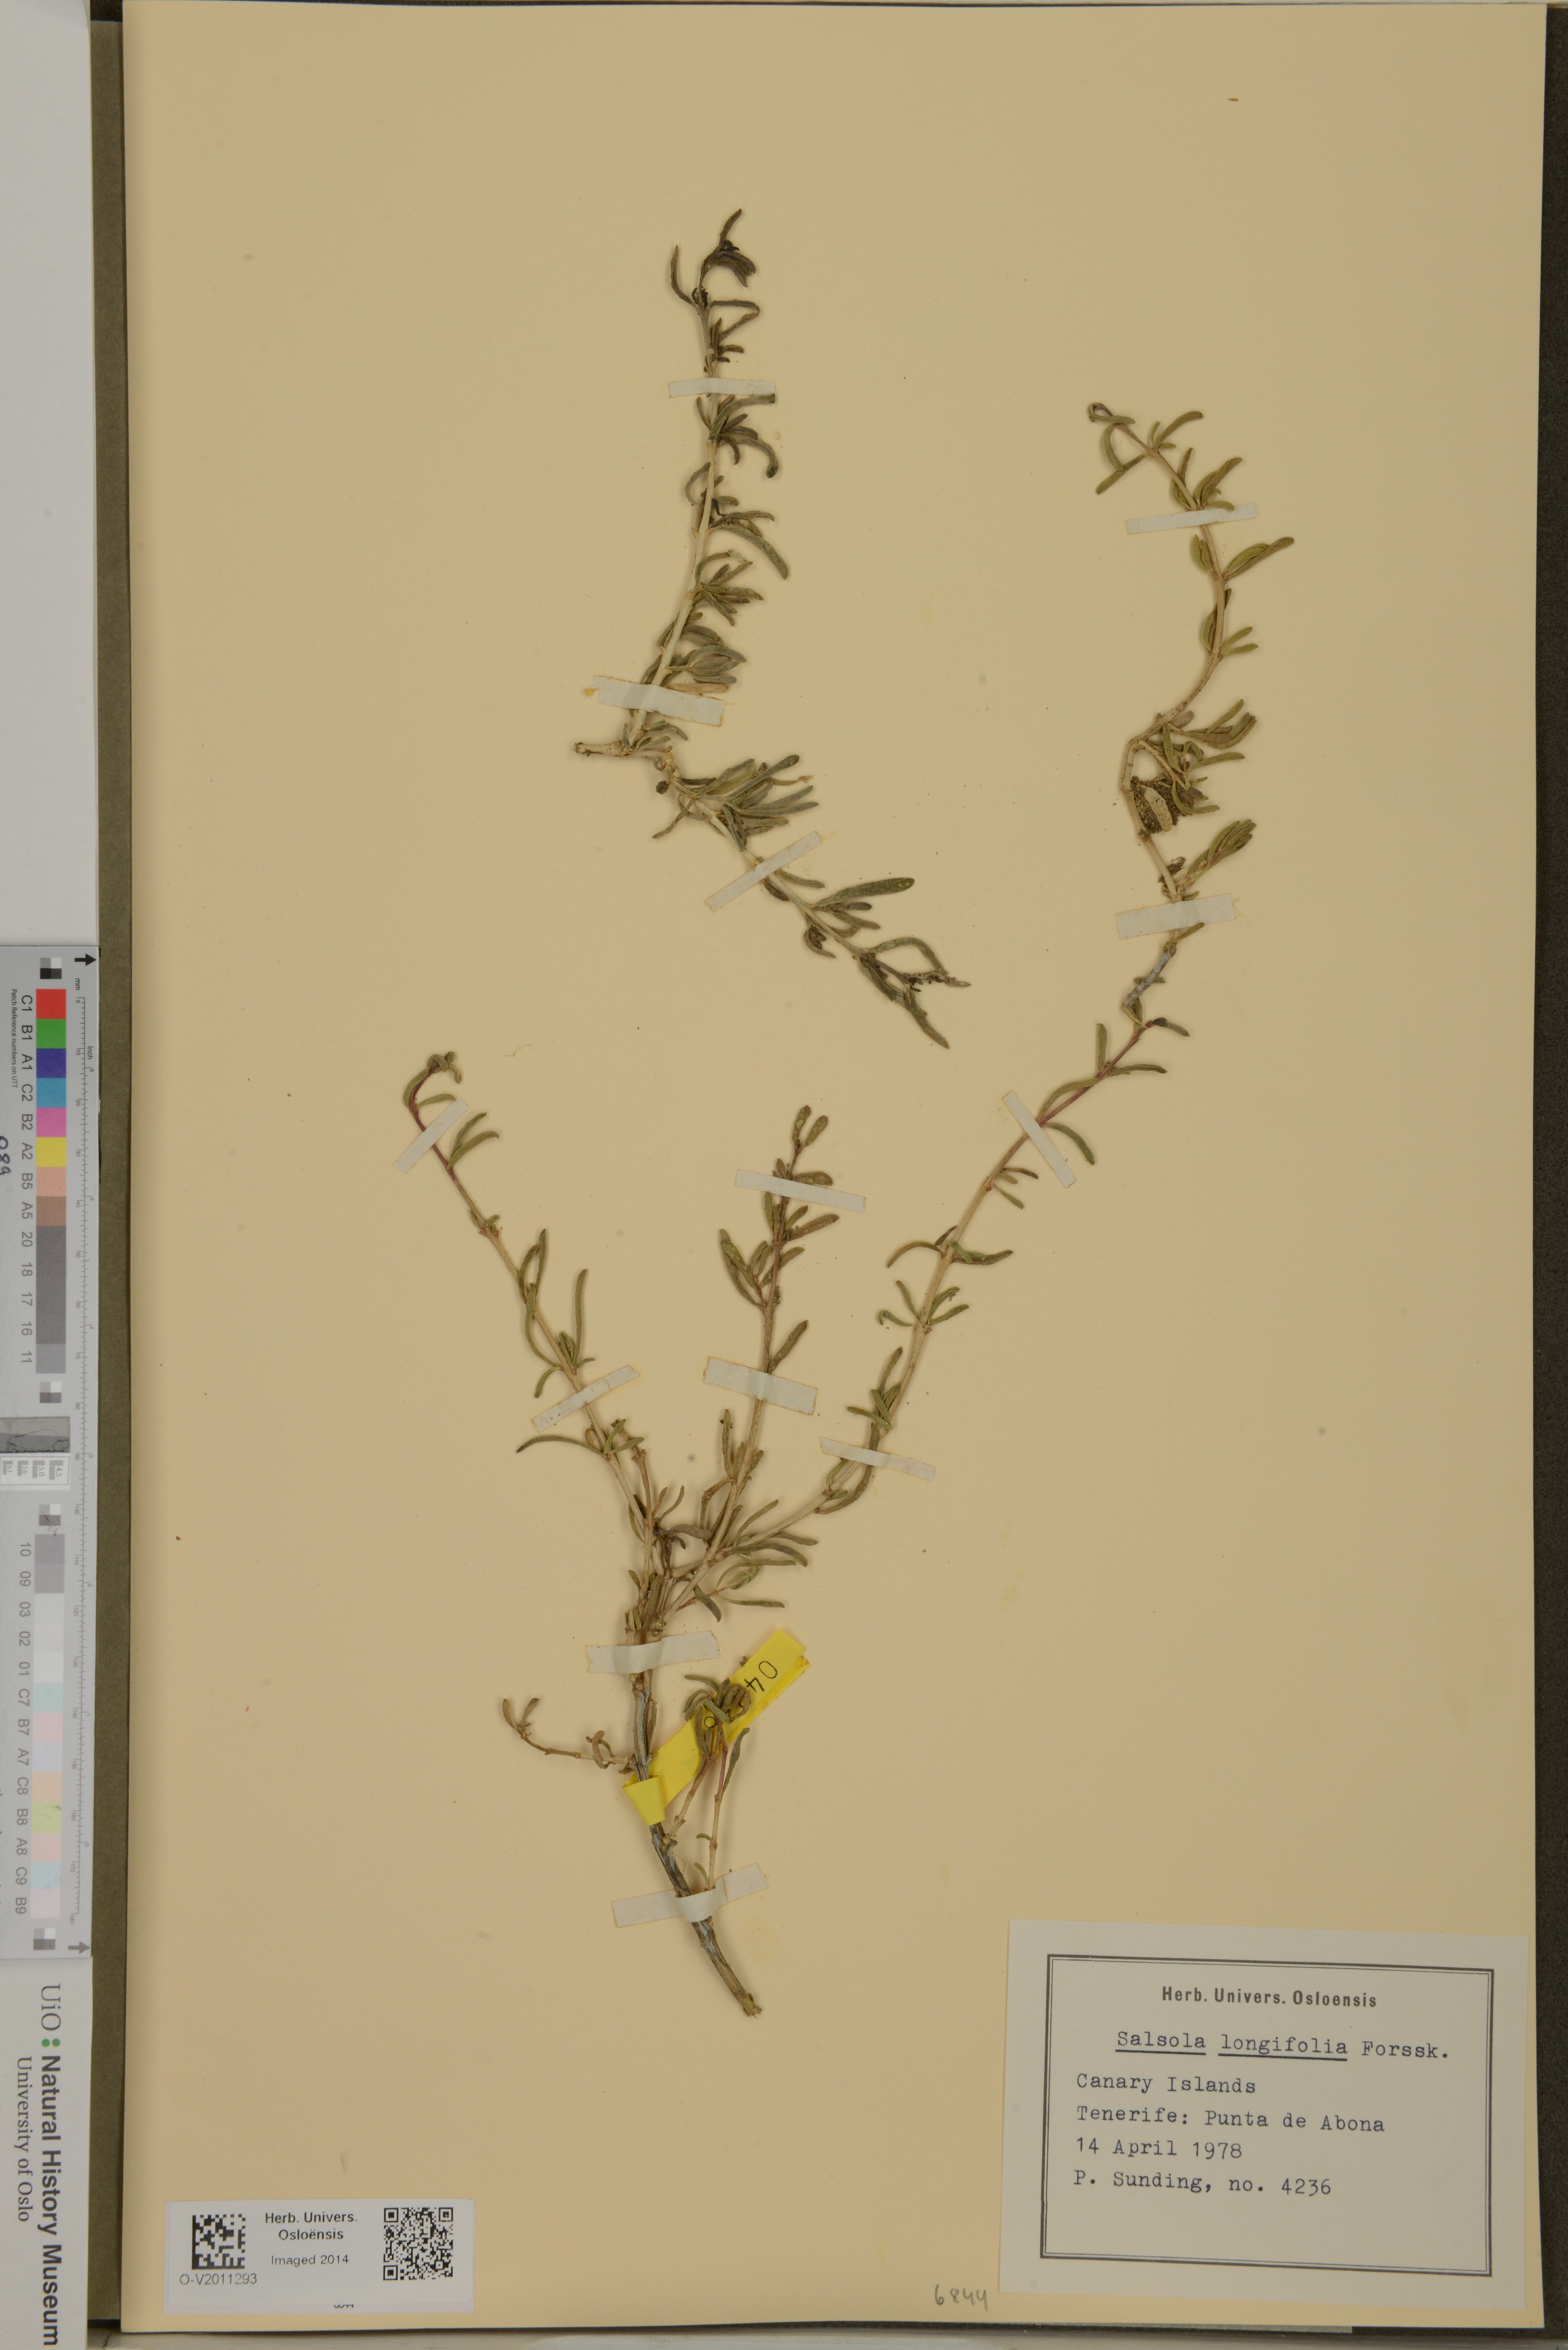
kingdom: Plantae
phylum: Tracheophyta
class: Magnoliopsida
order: Caryophyllales
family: Amaranthaceae
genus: Soda
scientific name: Soda longifolia
